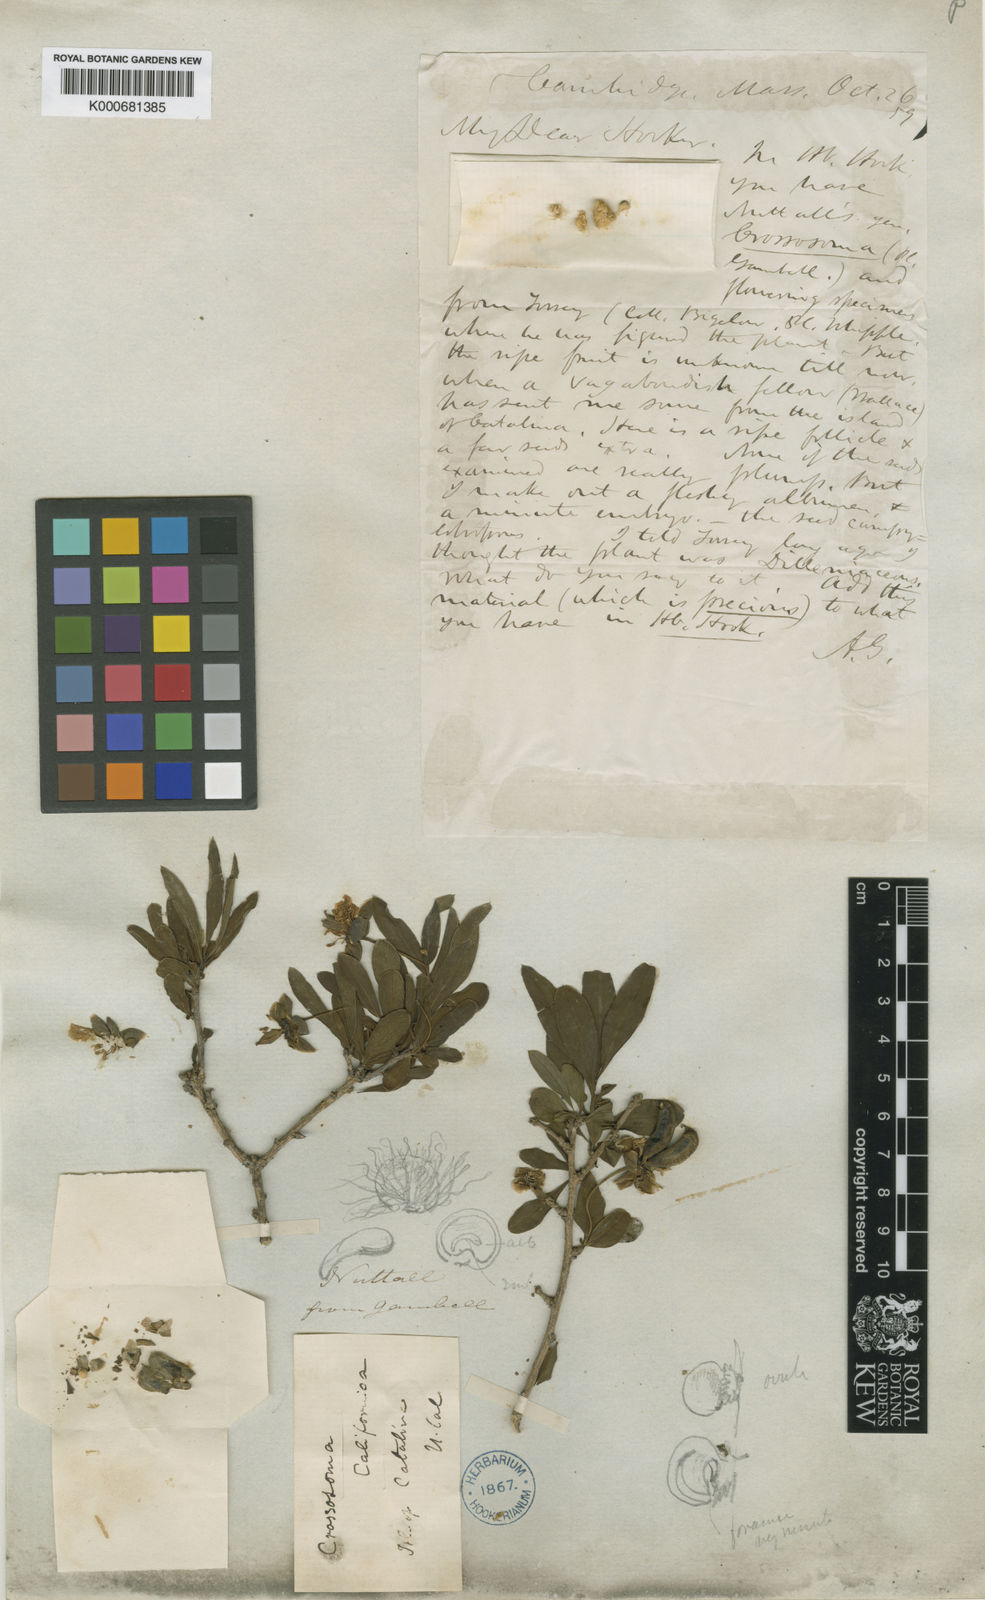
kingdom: Plantae
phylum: Tracheophyta
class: Magnoliopsida
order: Crossosomatales
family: Crossosomataceae
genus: Crossosoma
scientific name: Crossosoma californicum
